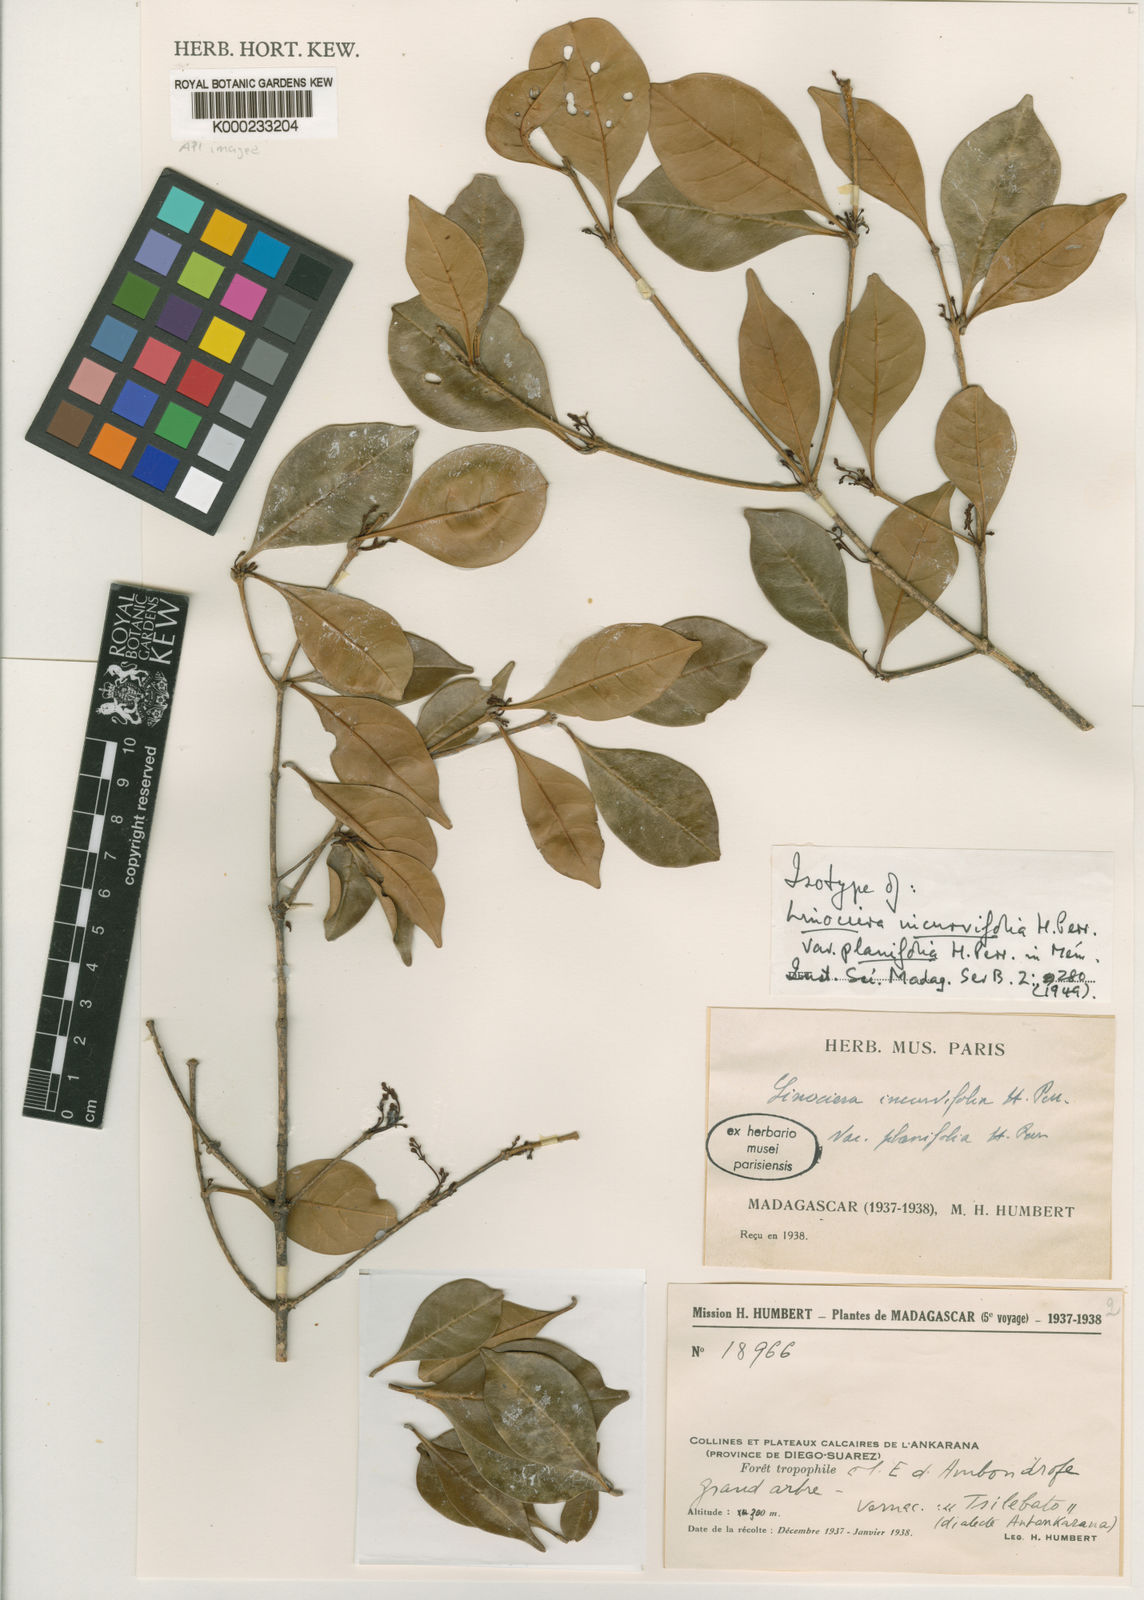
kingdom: Plantae
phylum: Tracheophyta
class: Magnoliopsida
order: Lamiales
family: Oleaceae
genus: Noronhia
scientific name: Noronhia incurvifolia
